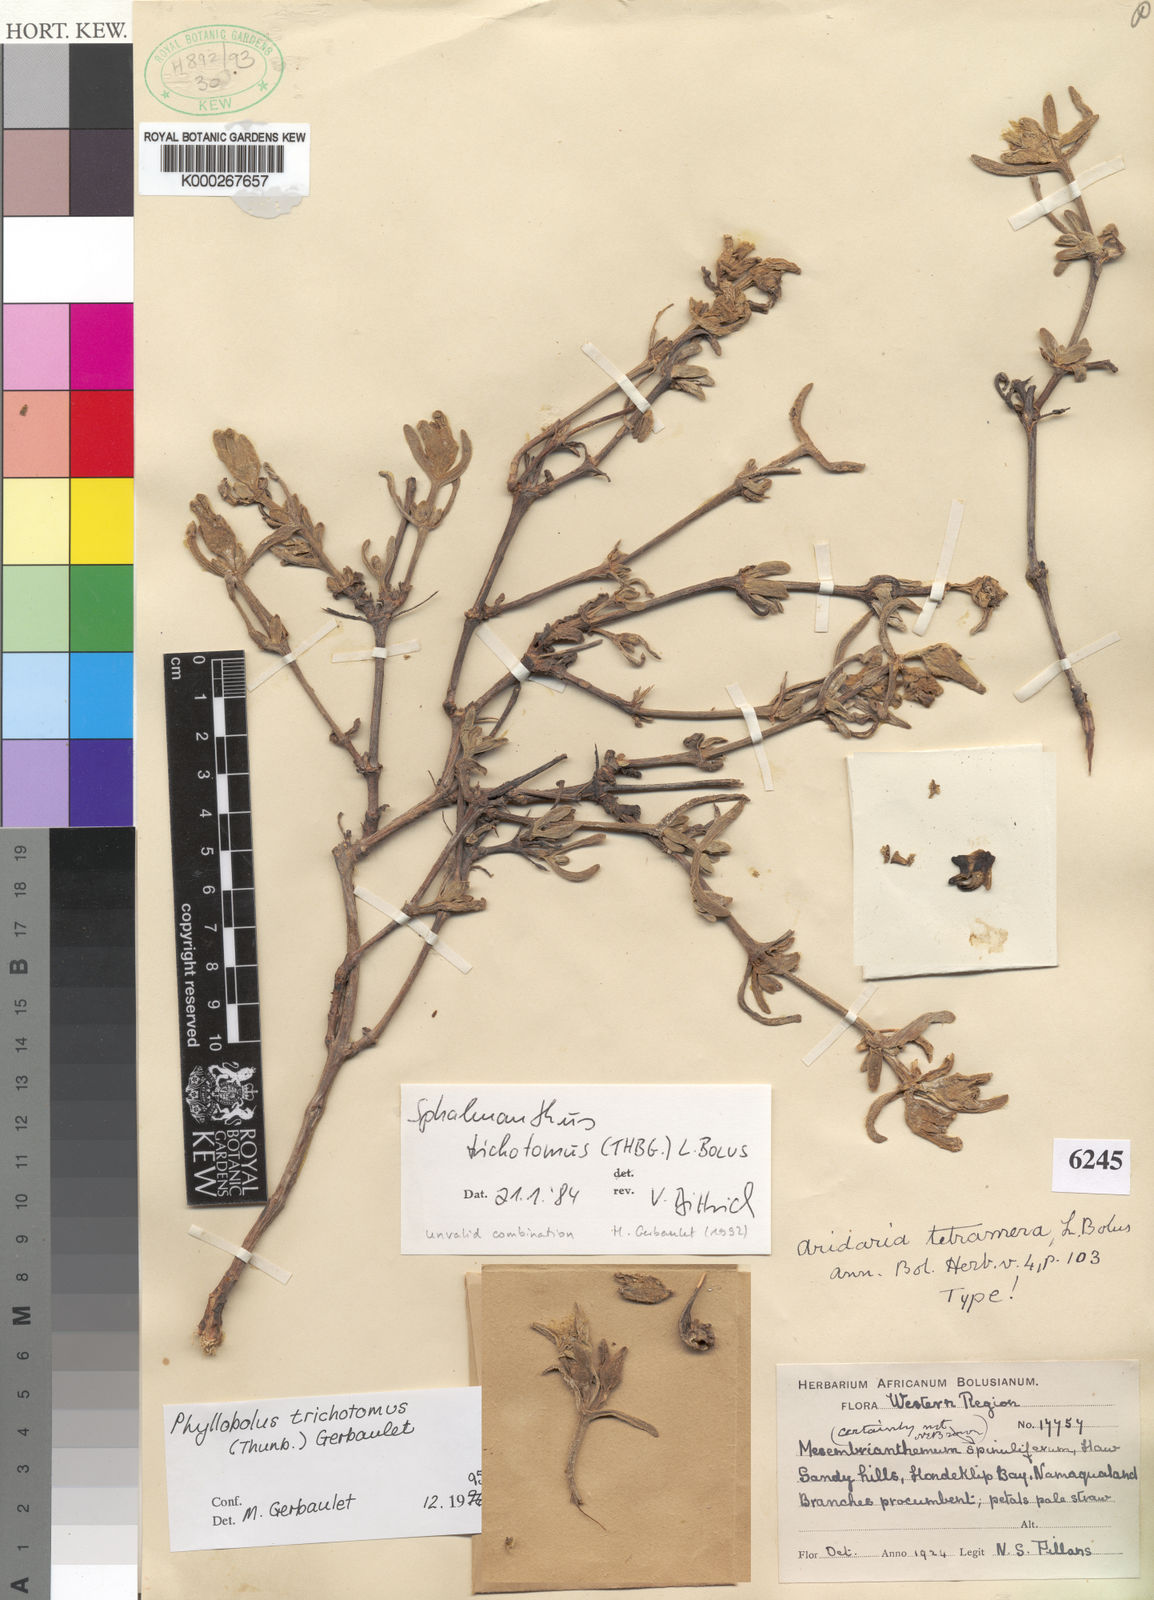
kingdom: Plantae
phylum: Tracheophyta
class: Magnoliopsida
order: Caryophyllales
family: Aizoaceae
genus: Mesembryanthemum
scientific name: Mesembryanthemum trichotomum
